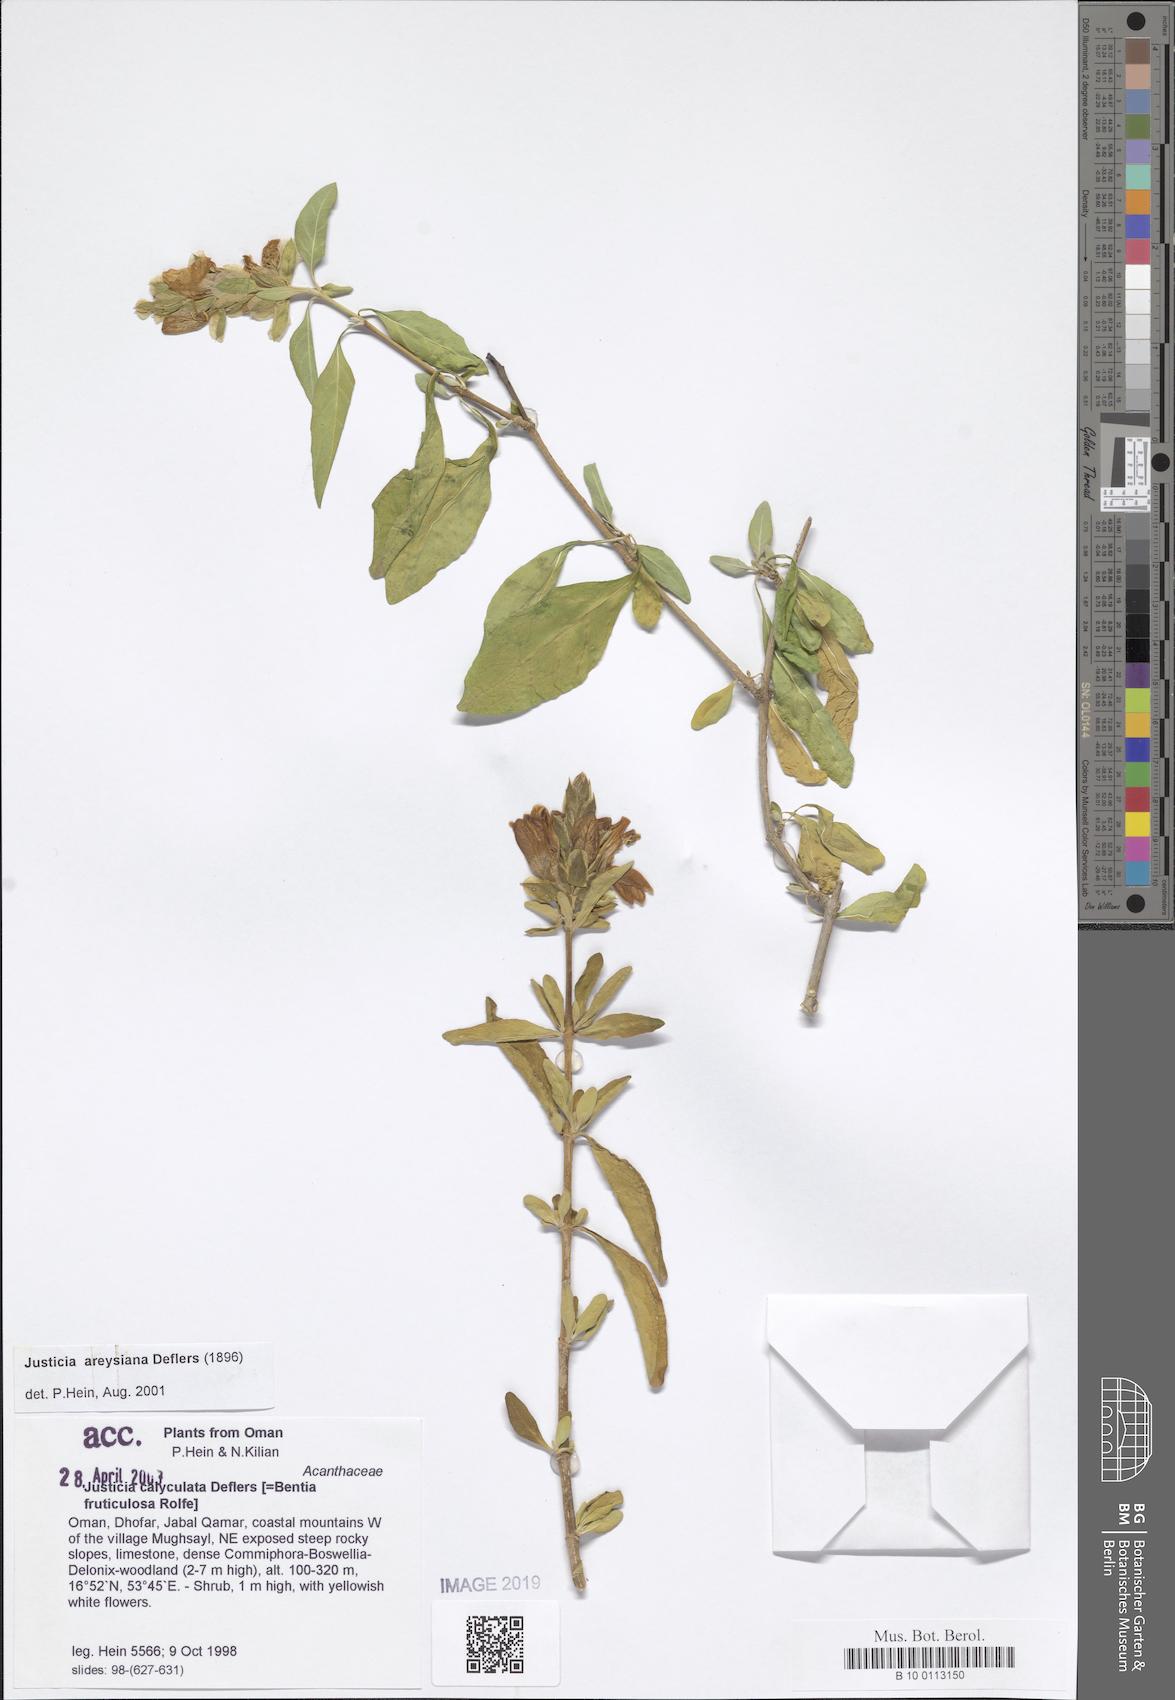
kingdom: Plantae
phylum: Tracheophyta
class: Magnoliopsida
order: Lamiales
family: Acanthaceae
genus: Justicia
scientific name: Justicia areysiana
